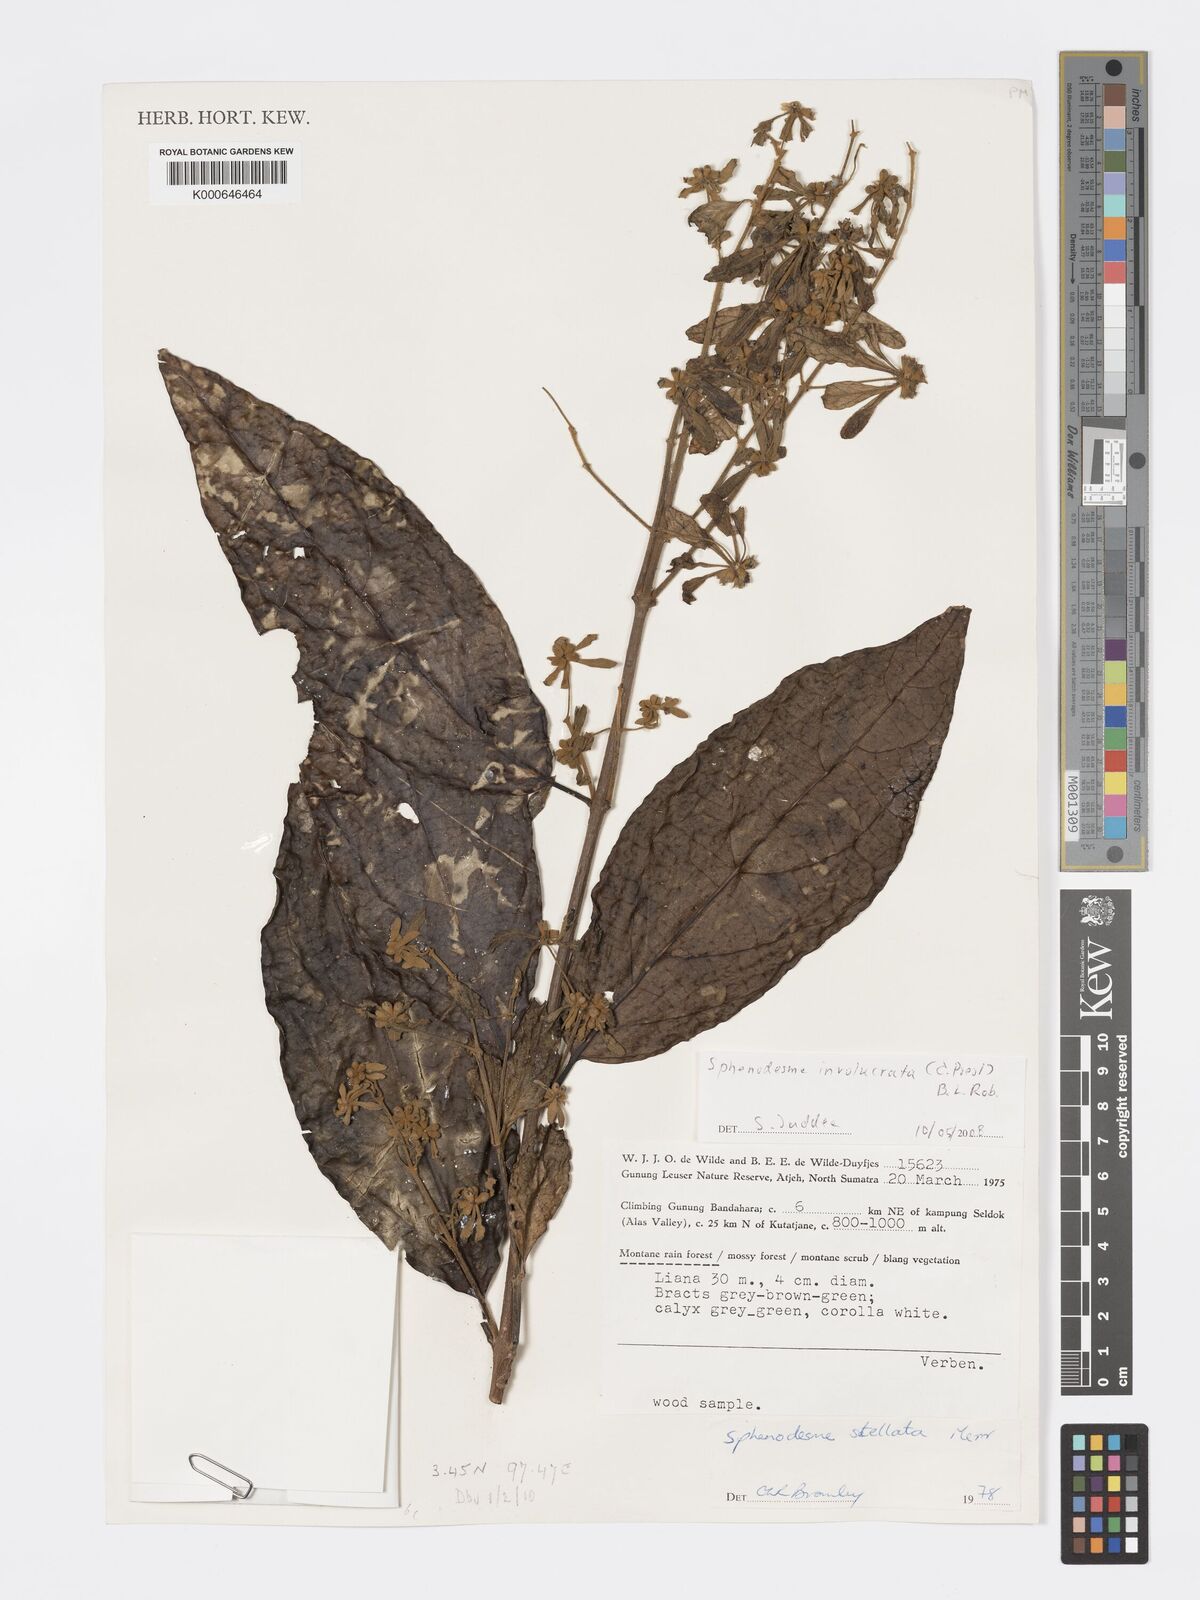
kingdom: Plantae
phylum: Tracheophyta
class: Magnoliopsida
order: Lamiales
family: Lamiaceae
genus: Sphenodesme
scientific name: Sphenodesme involucrata
